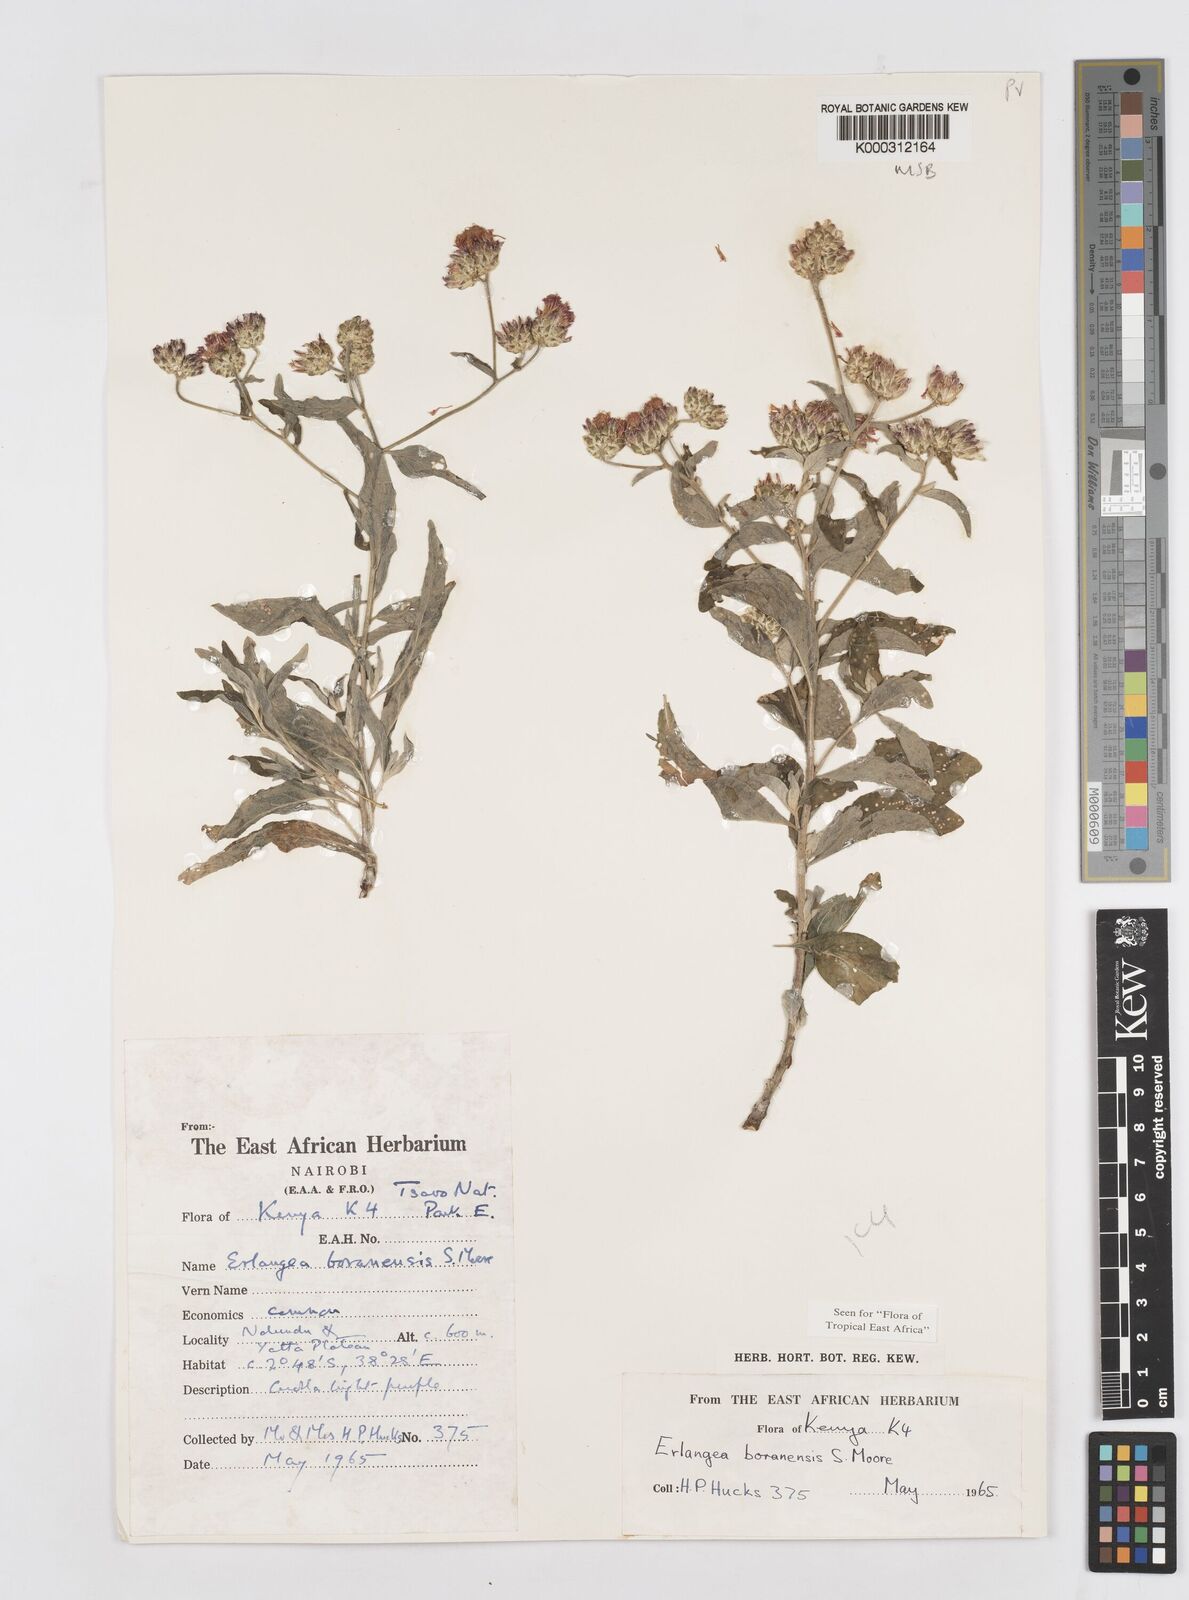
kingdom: Plantae
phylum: Tracheophyta
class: Magnoliopsida
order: Asterales
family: Asteraceae
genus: Gutenbergia
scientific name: Gutenbergia boranensis
